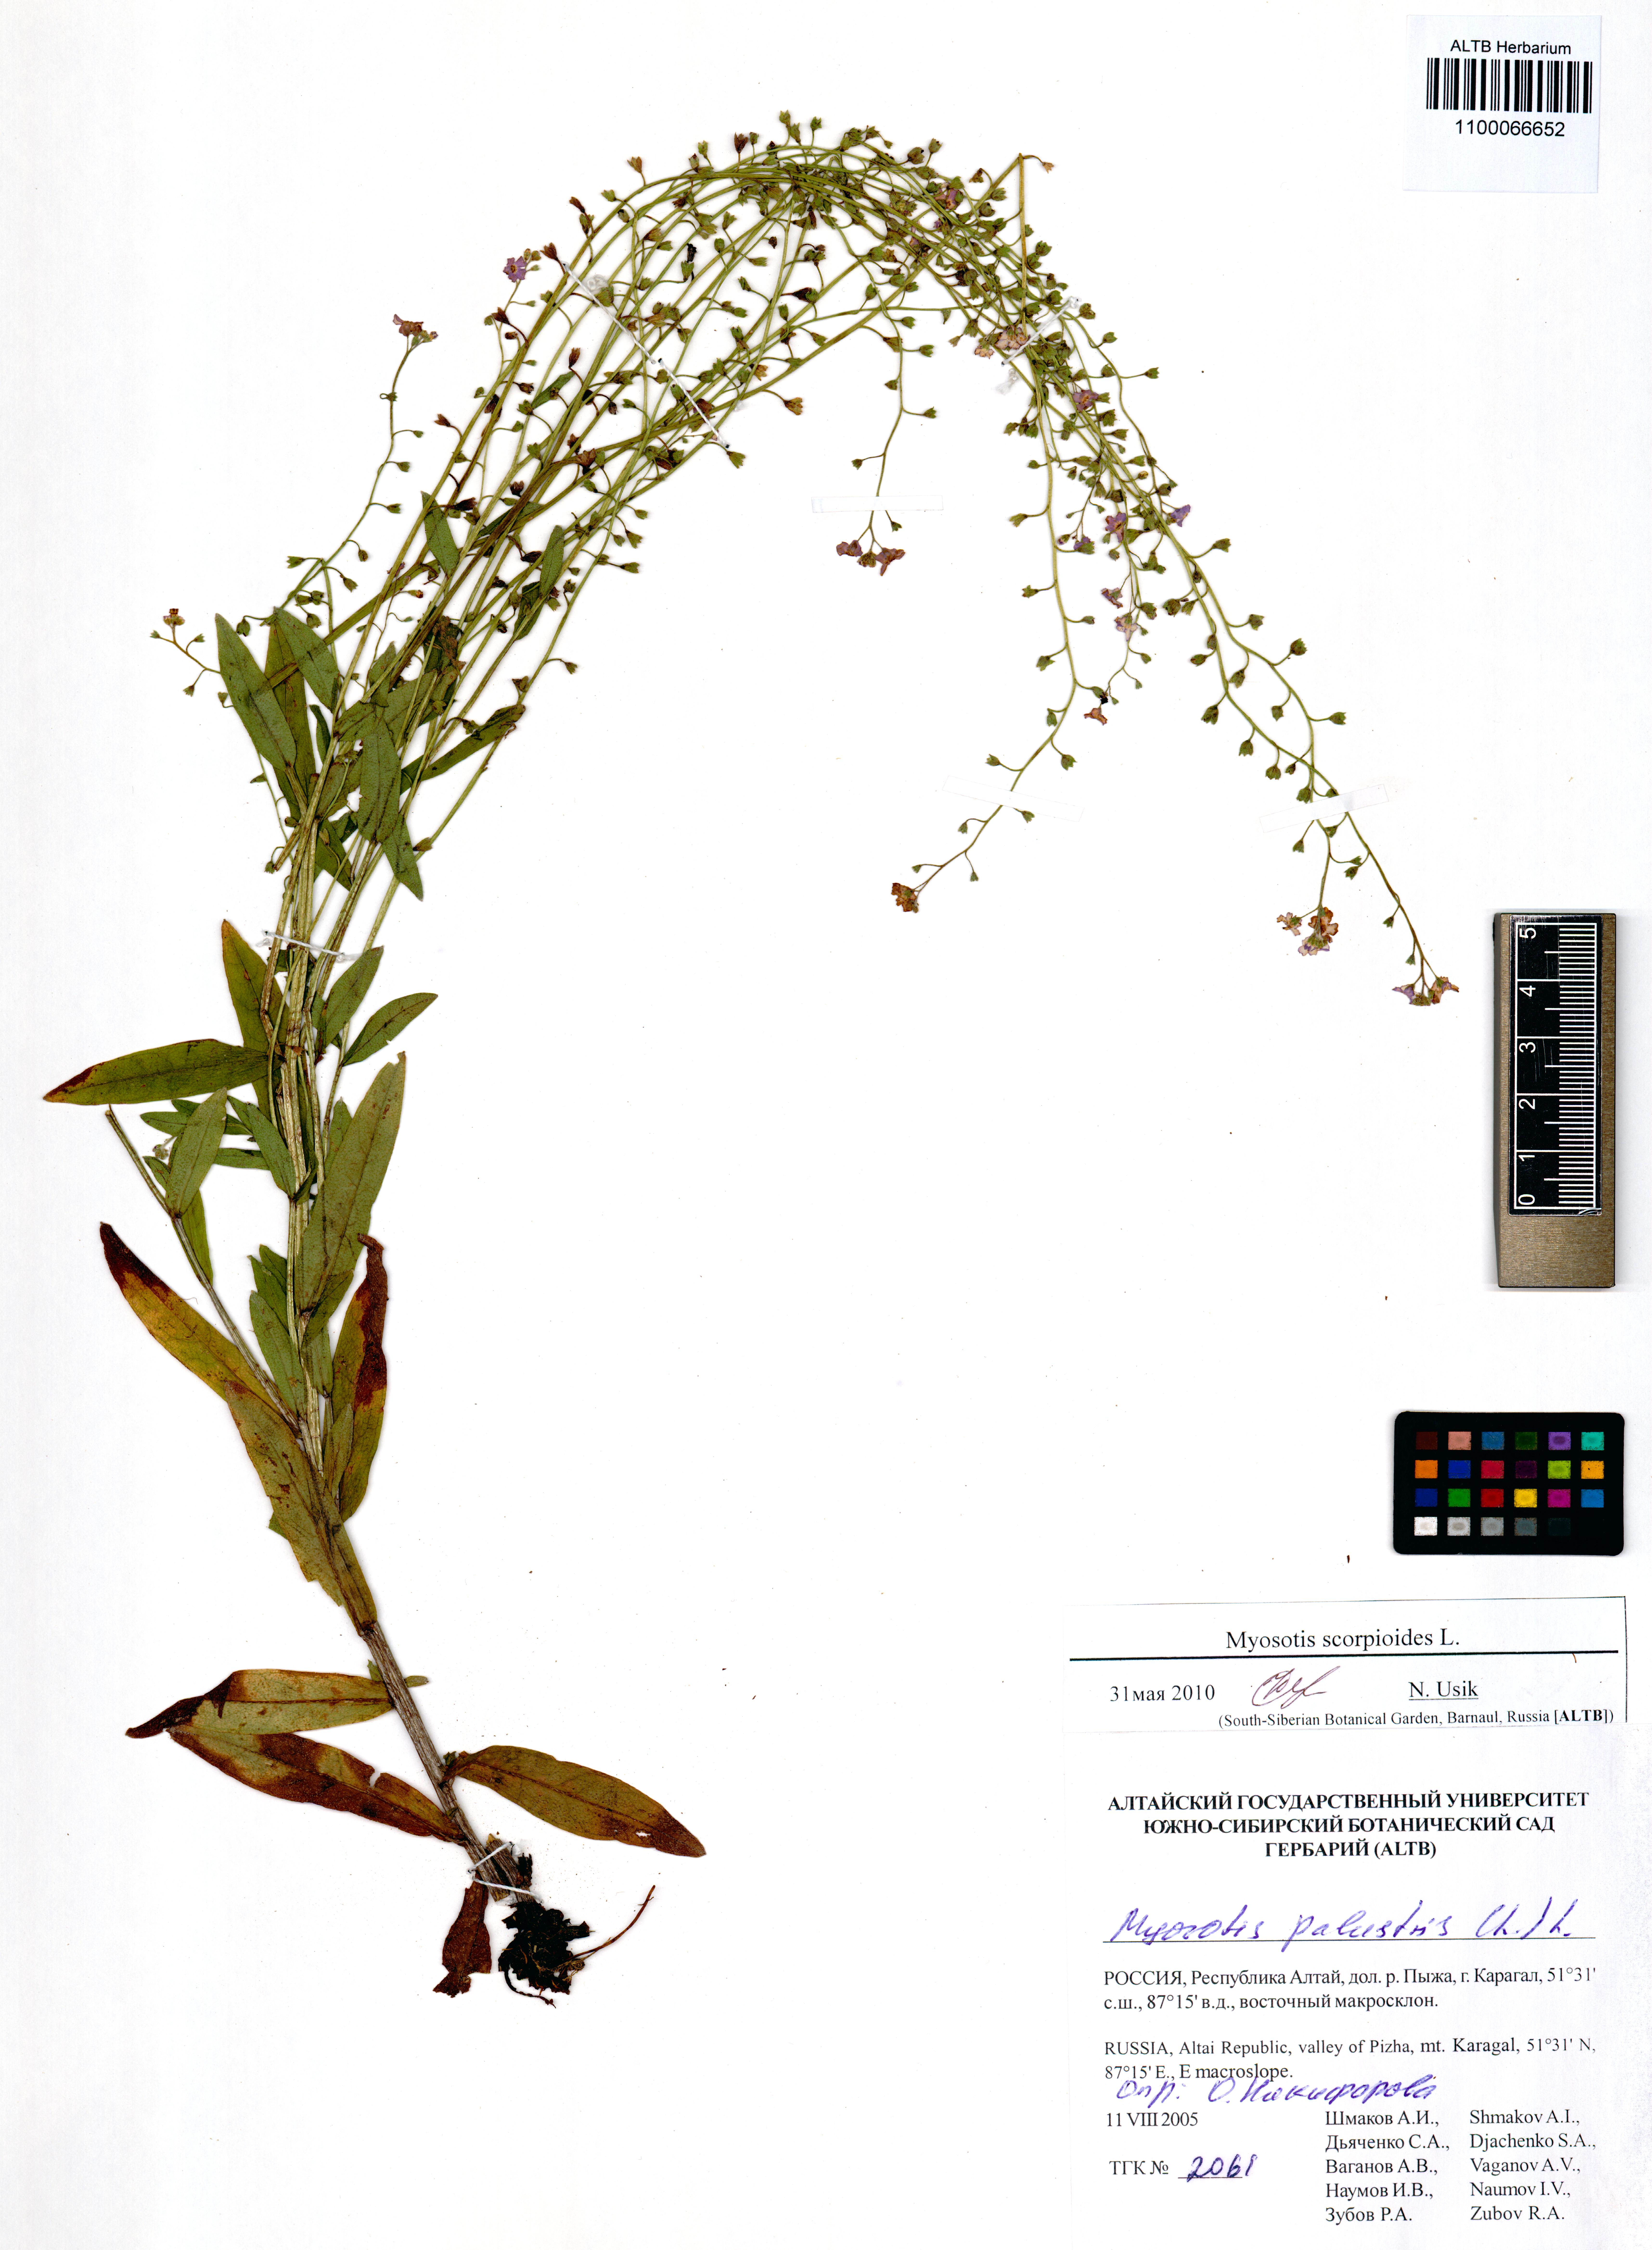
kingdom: Plantae
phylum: Tracheophyta
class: Magnoliopsida
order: Boraginales
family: Boraginaceae
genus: Myosotis
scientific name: Myosotis scorpioides
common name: Water forget-me-not
